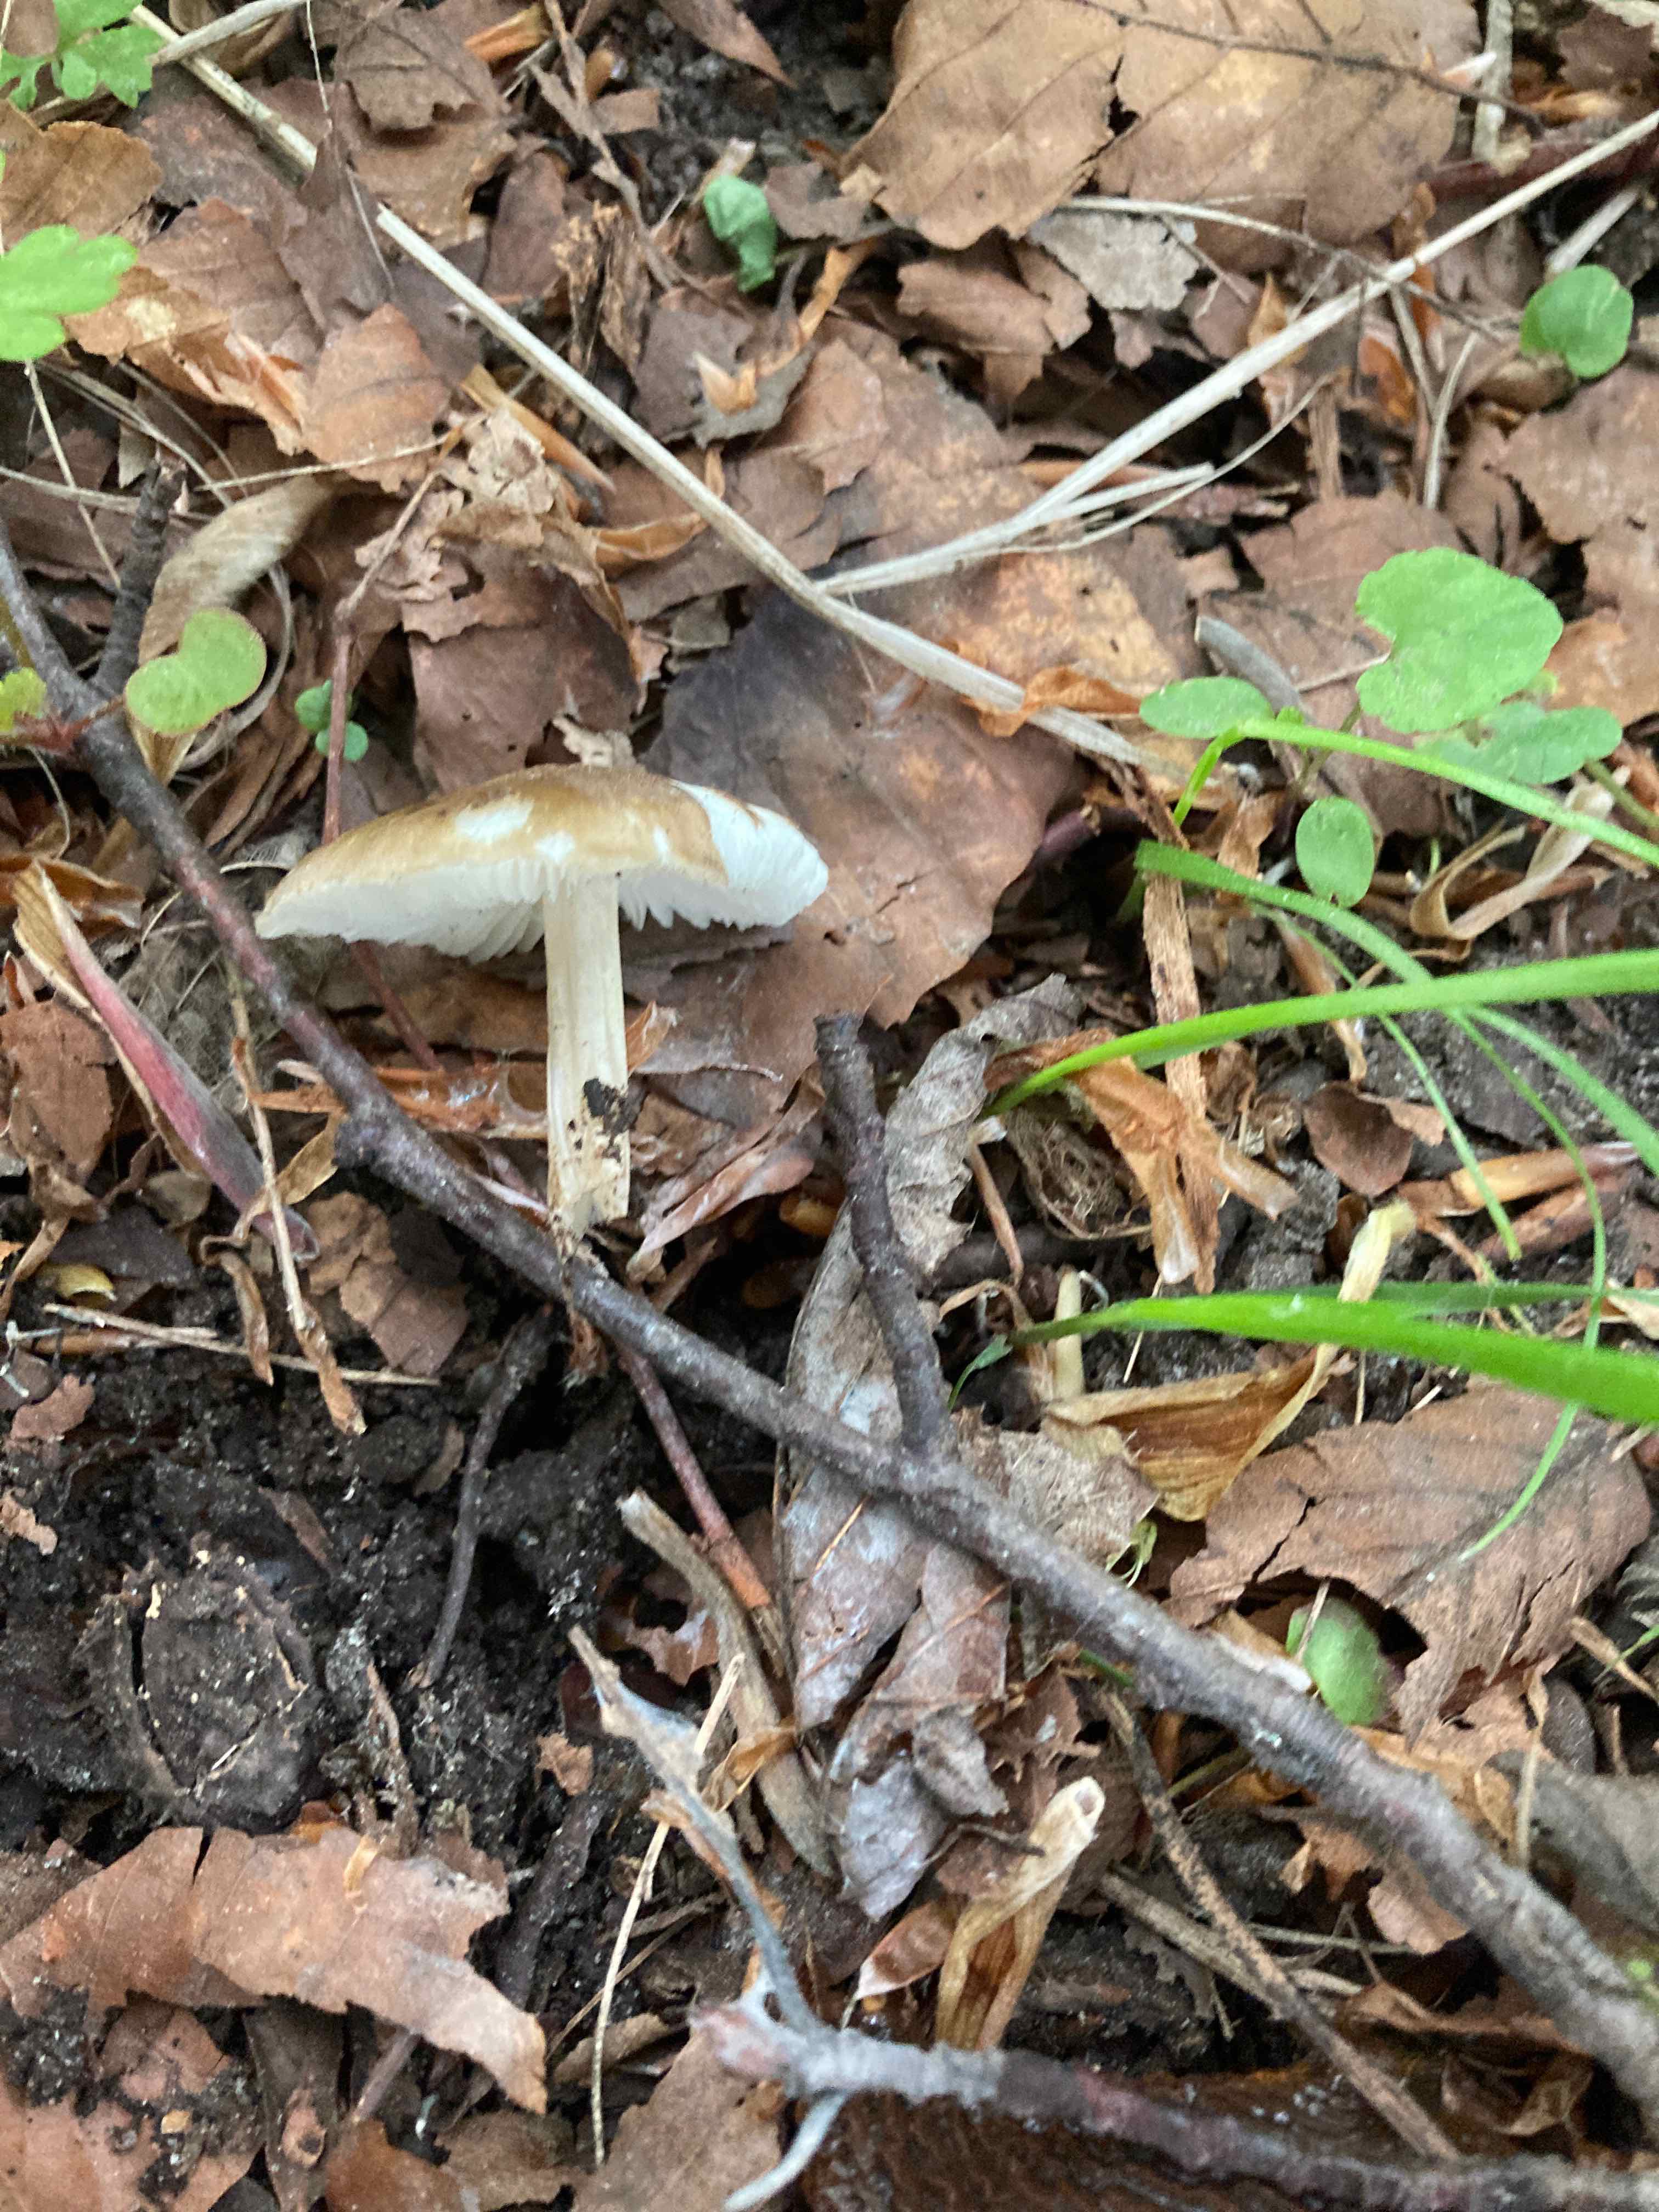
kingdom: Fungi
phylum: Basidiomycota
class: Agaricomycetes
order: Agaricales
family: Porotheleaceae
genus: Hydropodia
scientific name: Hydropodia subalpina
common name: vår-fnugfod
